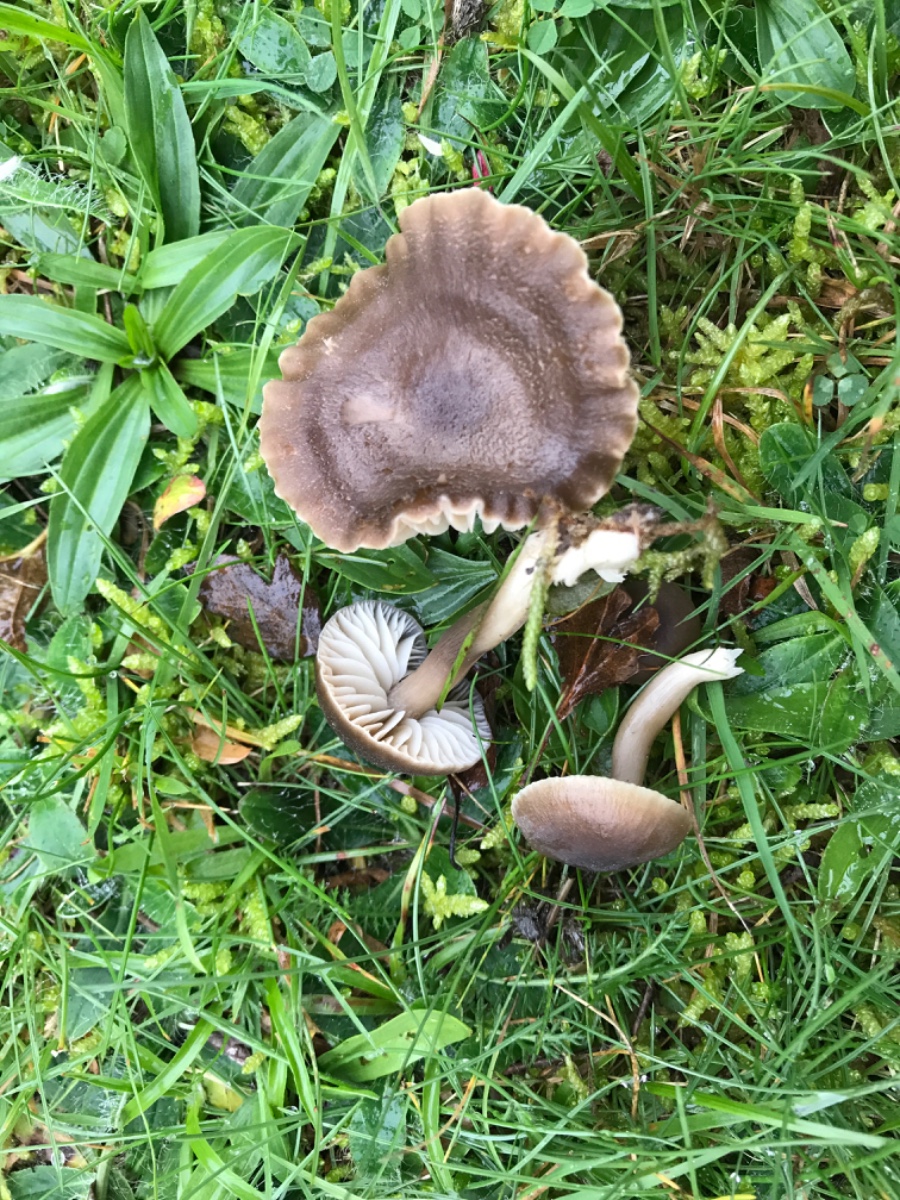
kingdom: Fungi
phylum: Basidiomycota
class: Agaricomycetes
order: Agaricales
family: Hygrophoraceae
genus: Neohygrocybe
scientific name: Neohygrocybe nitrata
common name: stinkende vokshat
